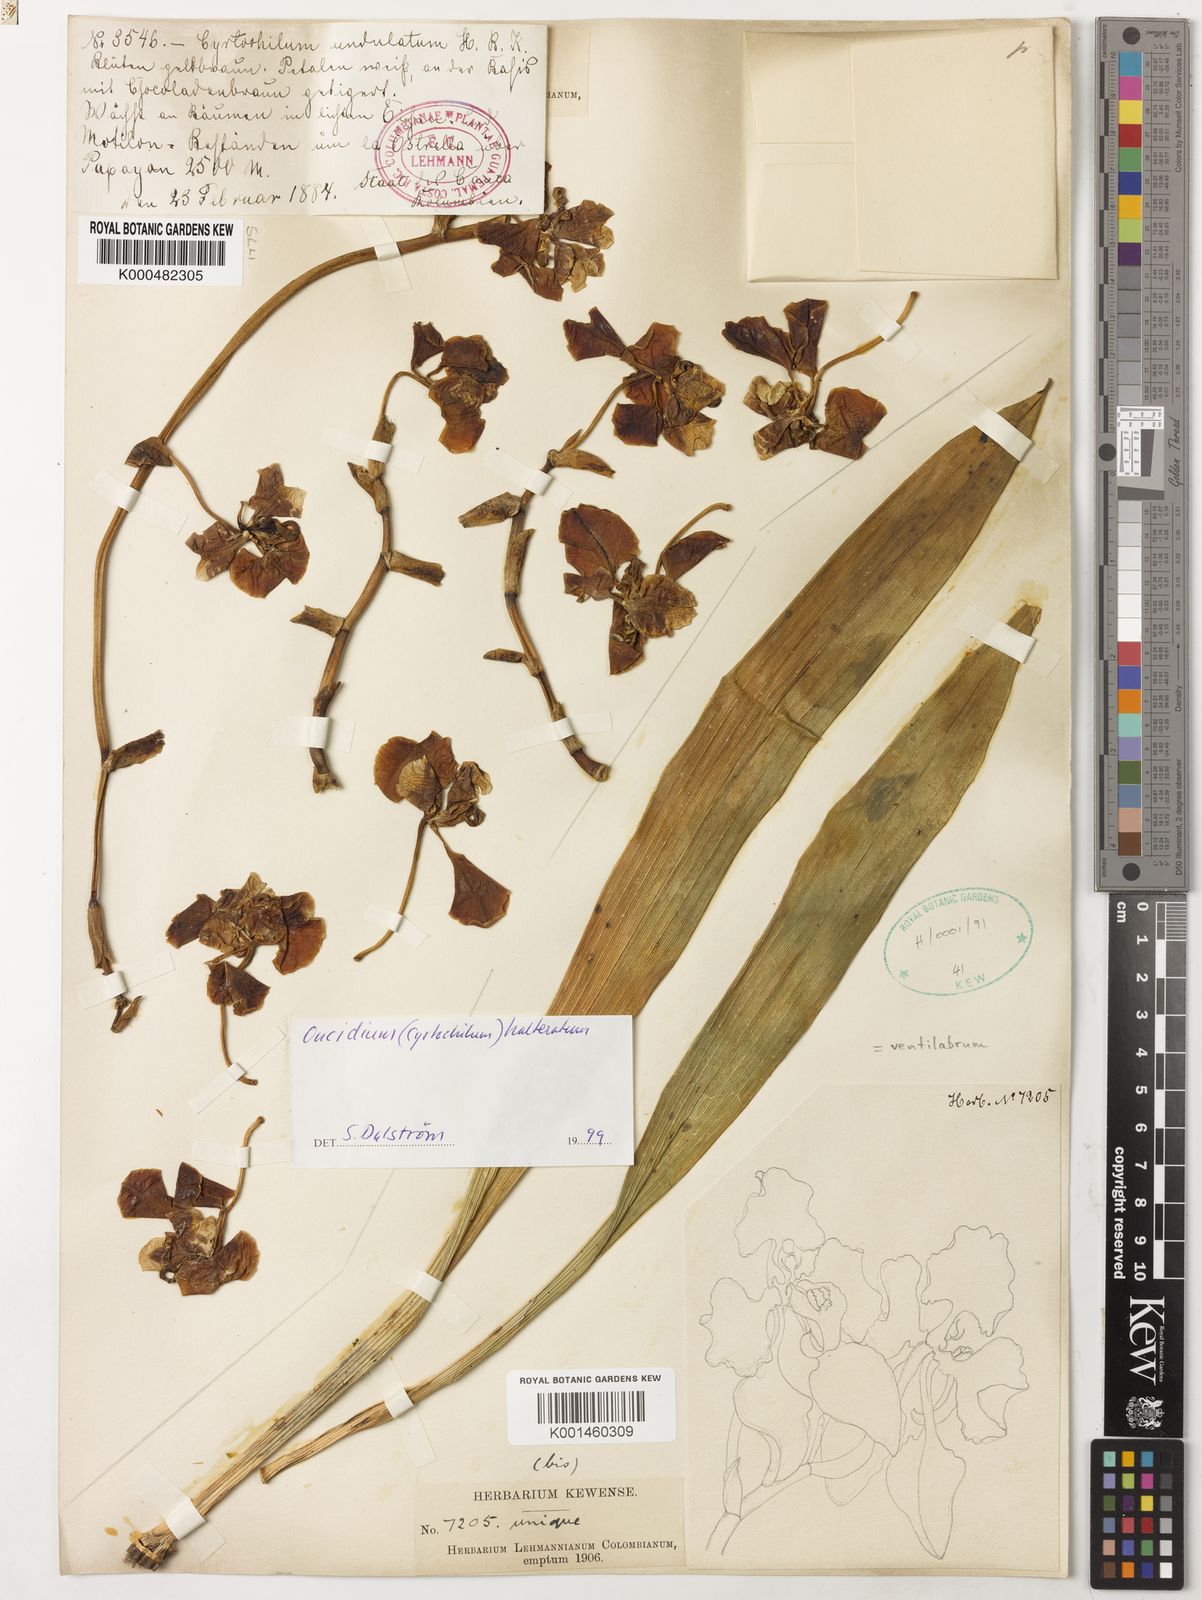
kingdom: Plantae
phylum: Tracheophyta
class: Liliopsida
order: Asparagales
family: Orchidaceae
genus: Cyrtochilum
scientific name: Cyrtochilum halteratum
